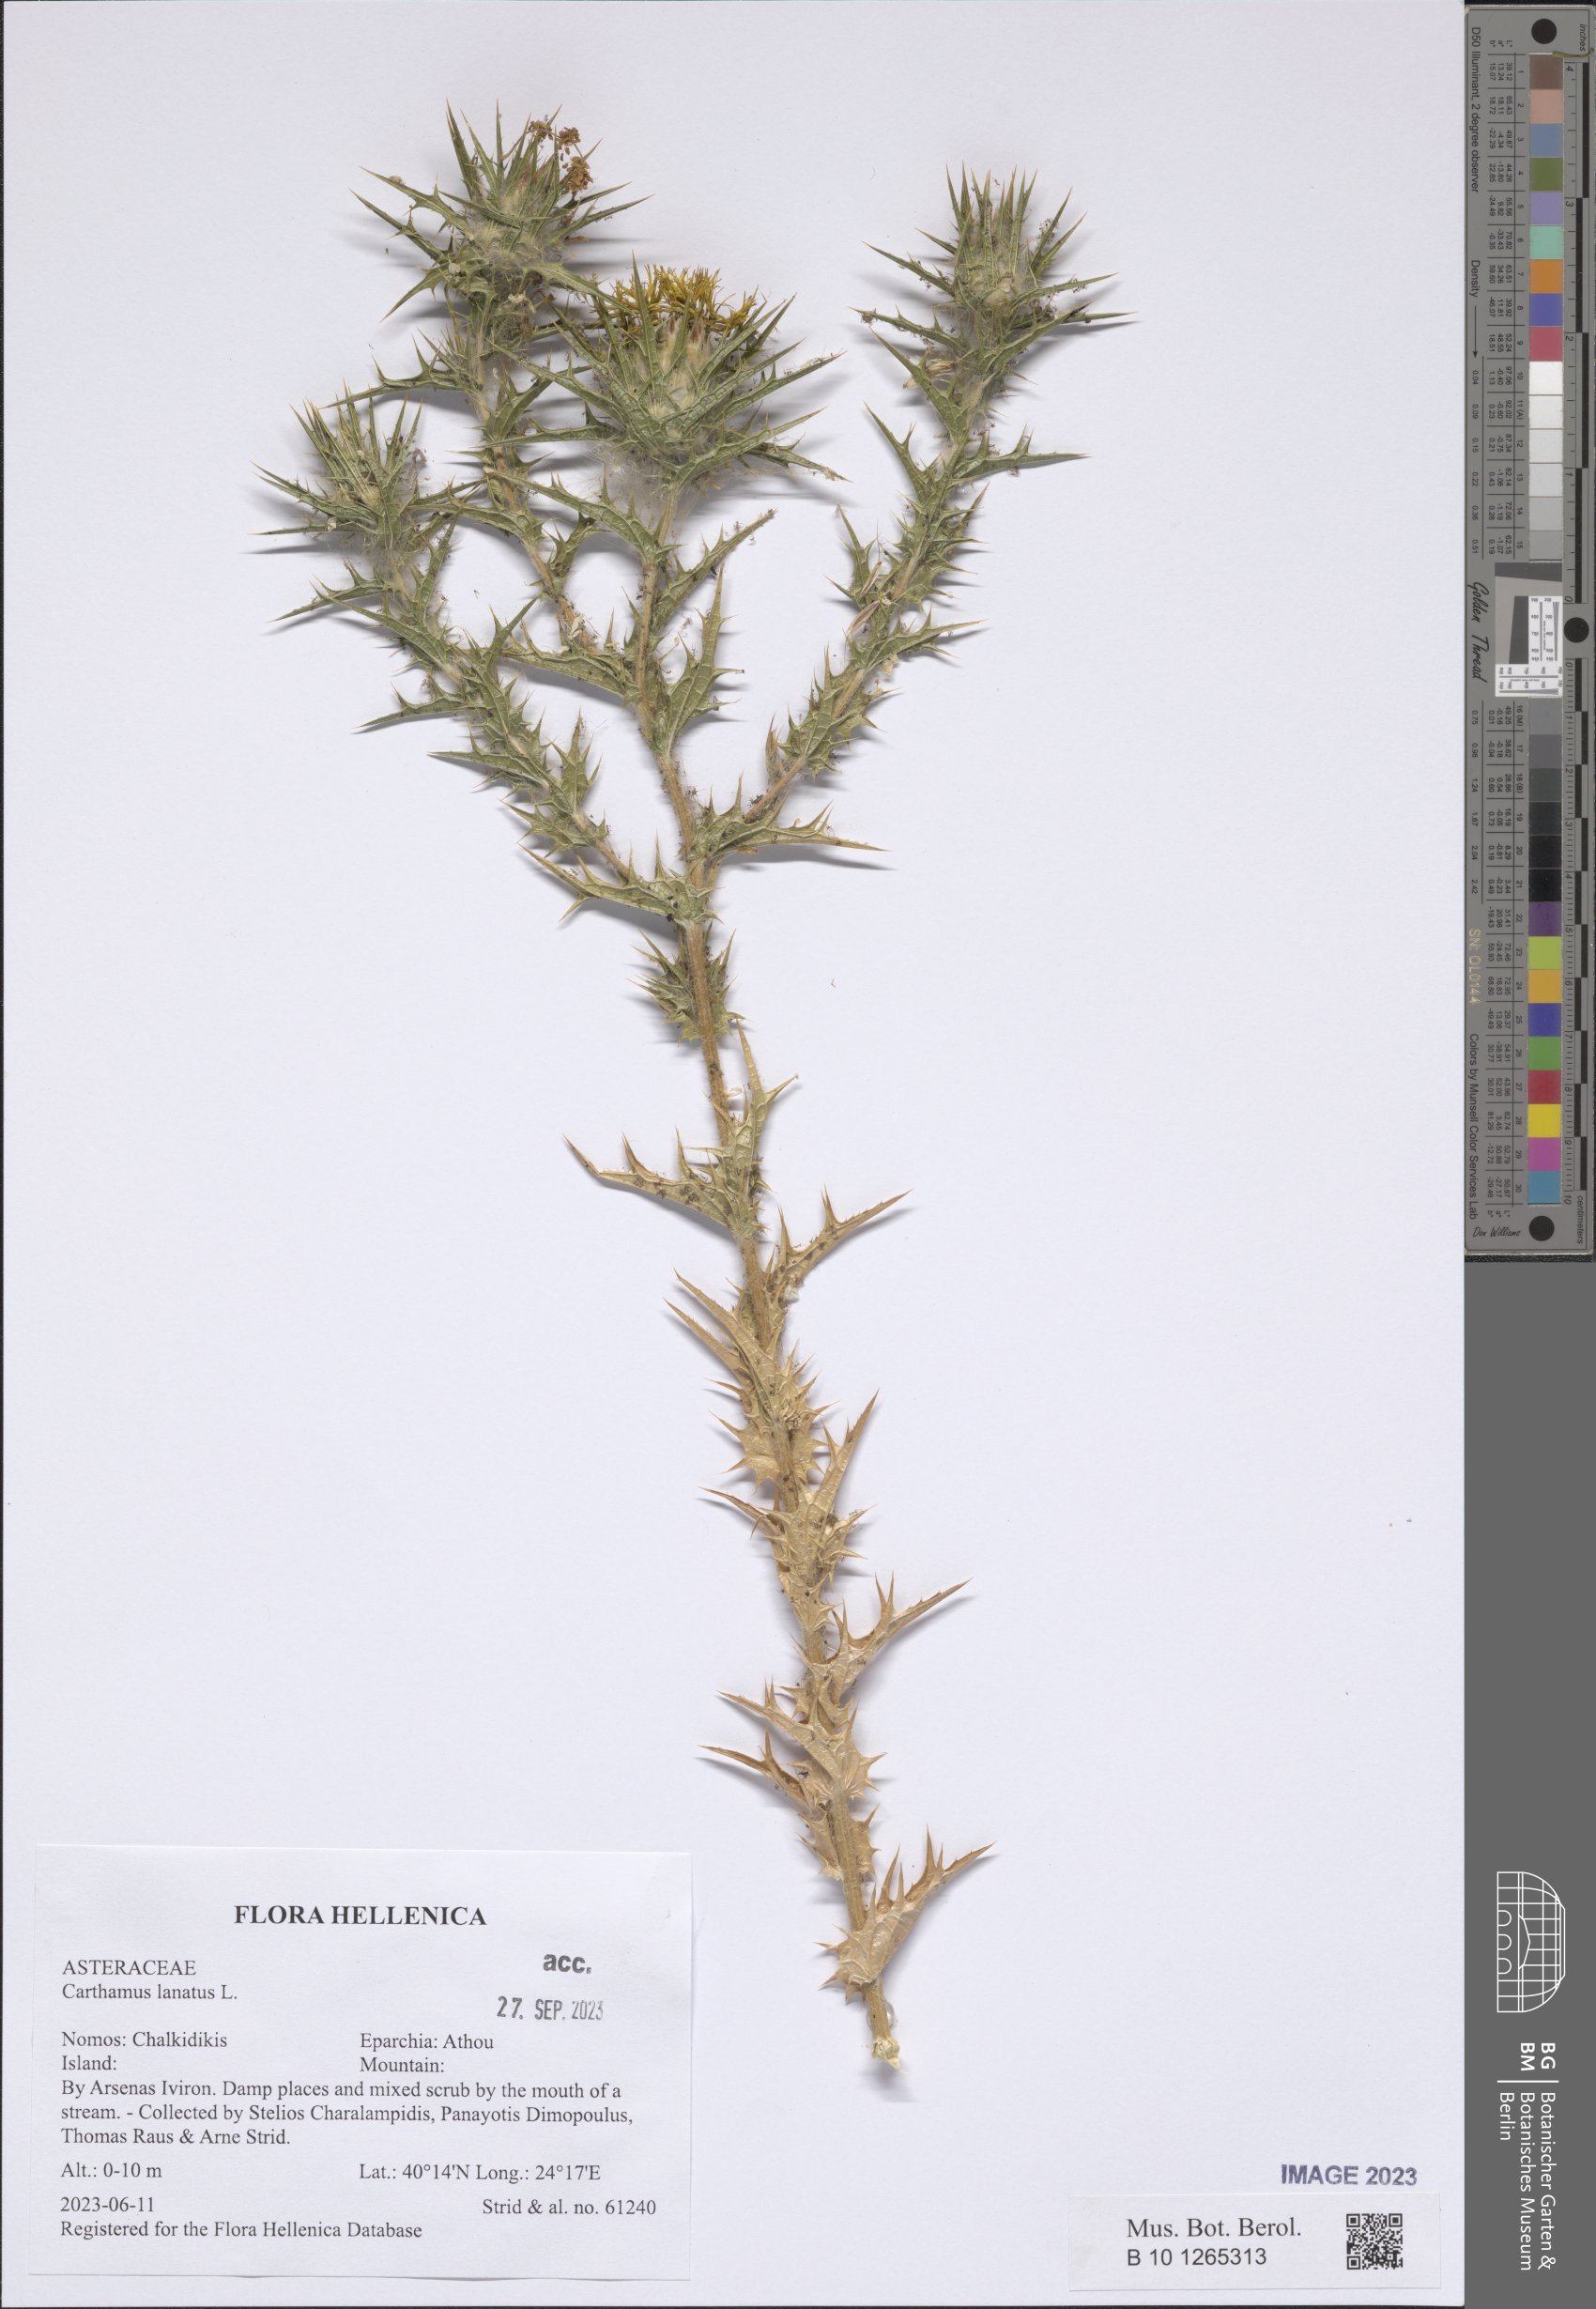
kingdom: Plantae
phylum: Tracheophyta
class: Magnoliopsida
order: Asterales
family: Asteraceae
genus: Carthamus
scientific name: Carthamus lanatus
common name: Downy safflower
